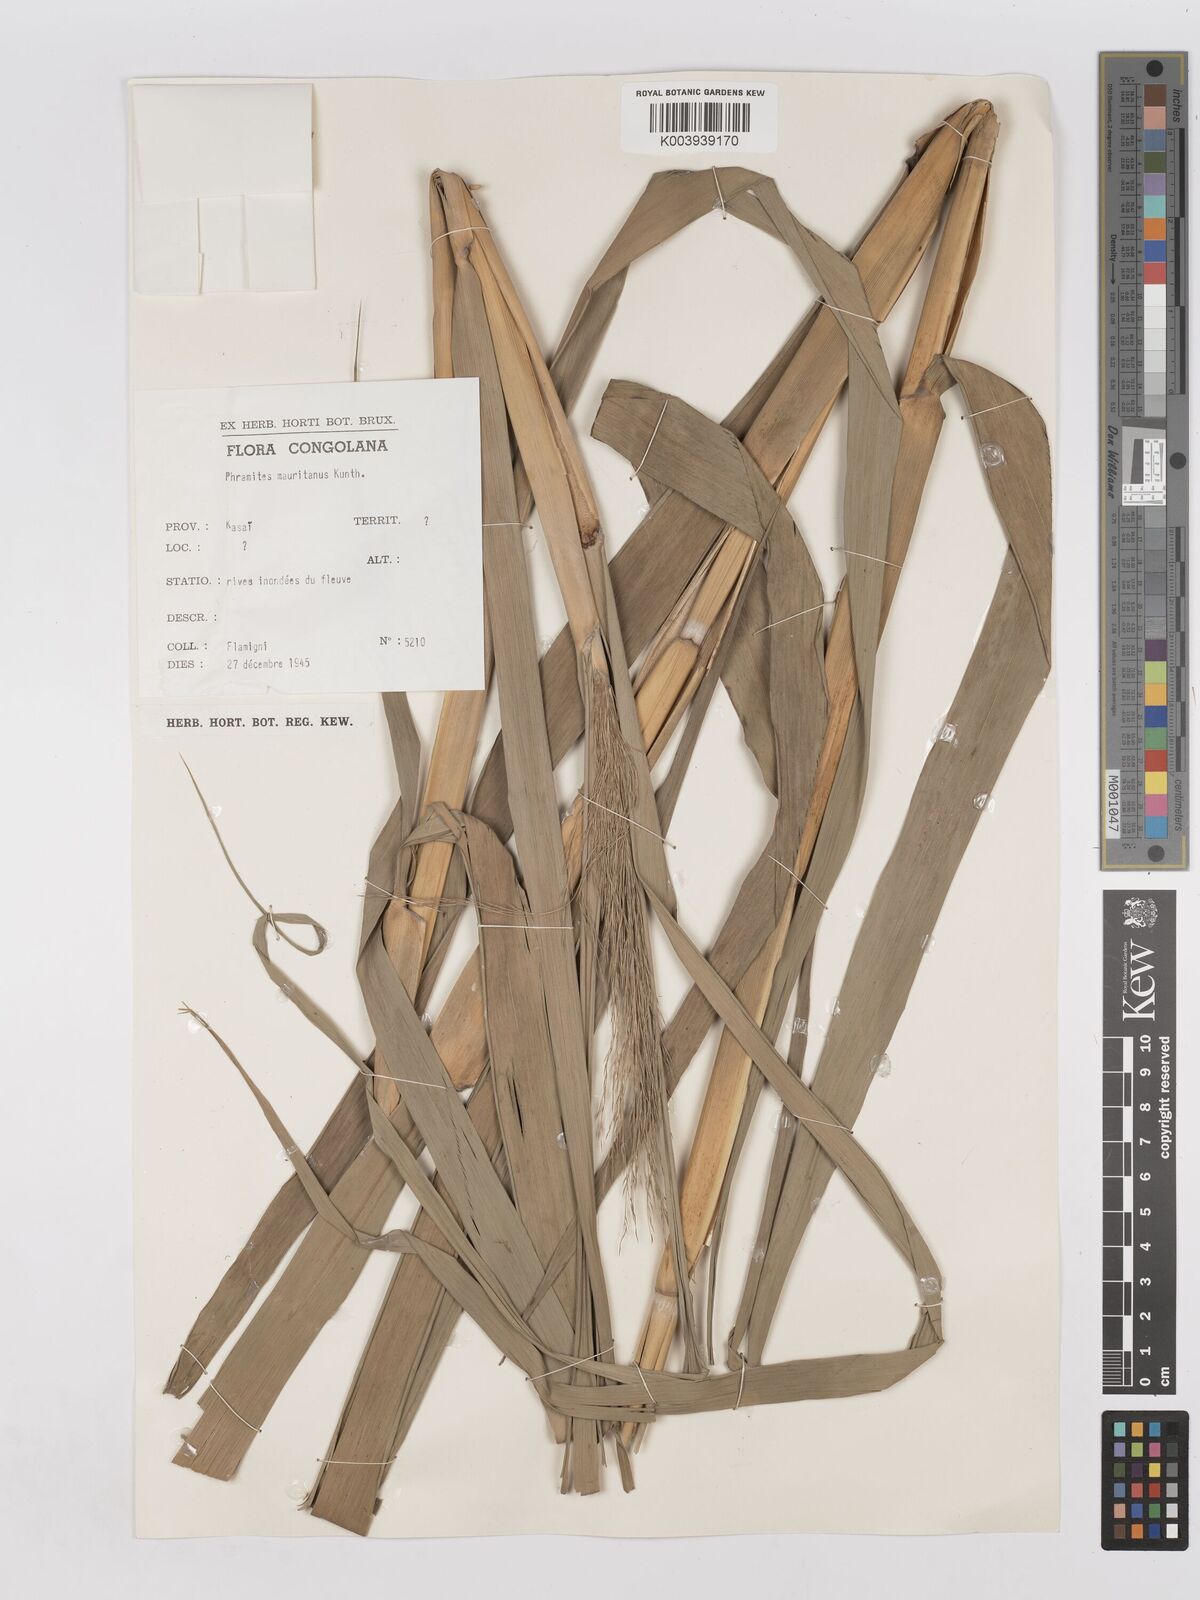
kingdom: Plantae
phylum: Tracheophyta
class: Liliopsida
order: Poales
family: Poaceae
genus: Phragmites
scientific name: Phragmites mauritianus
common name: Reed grass
